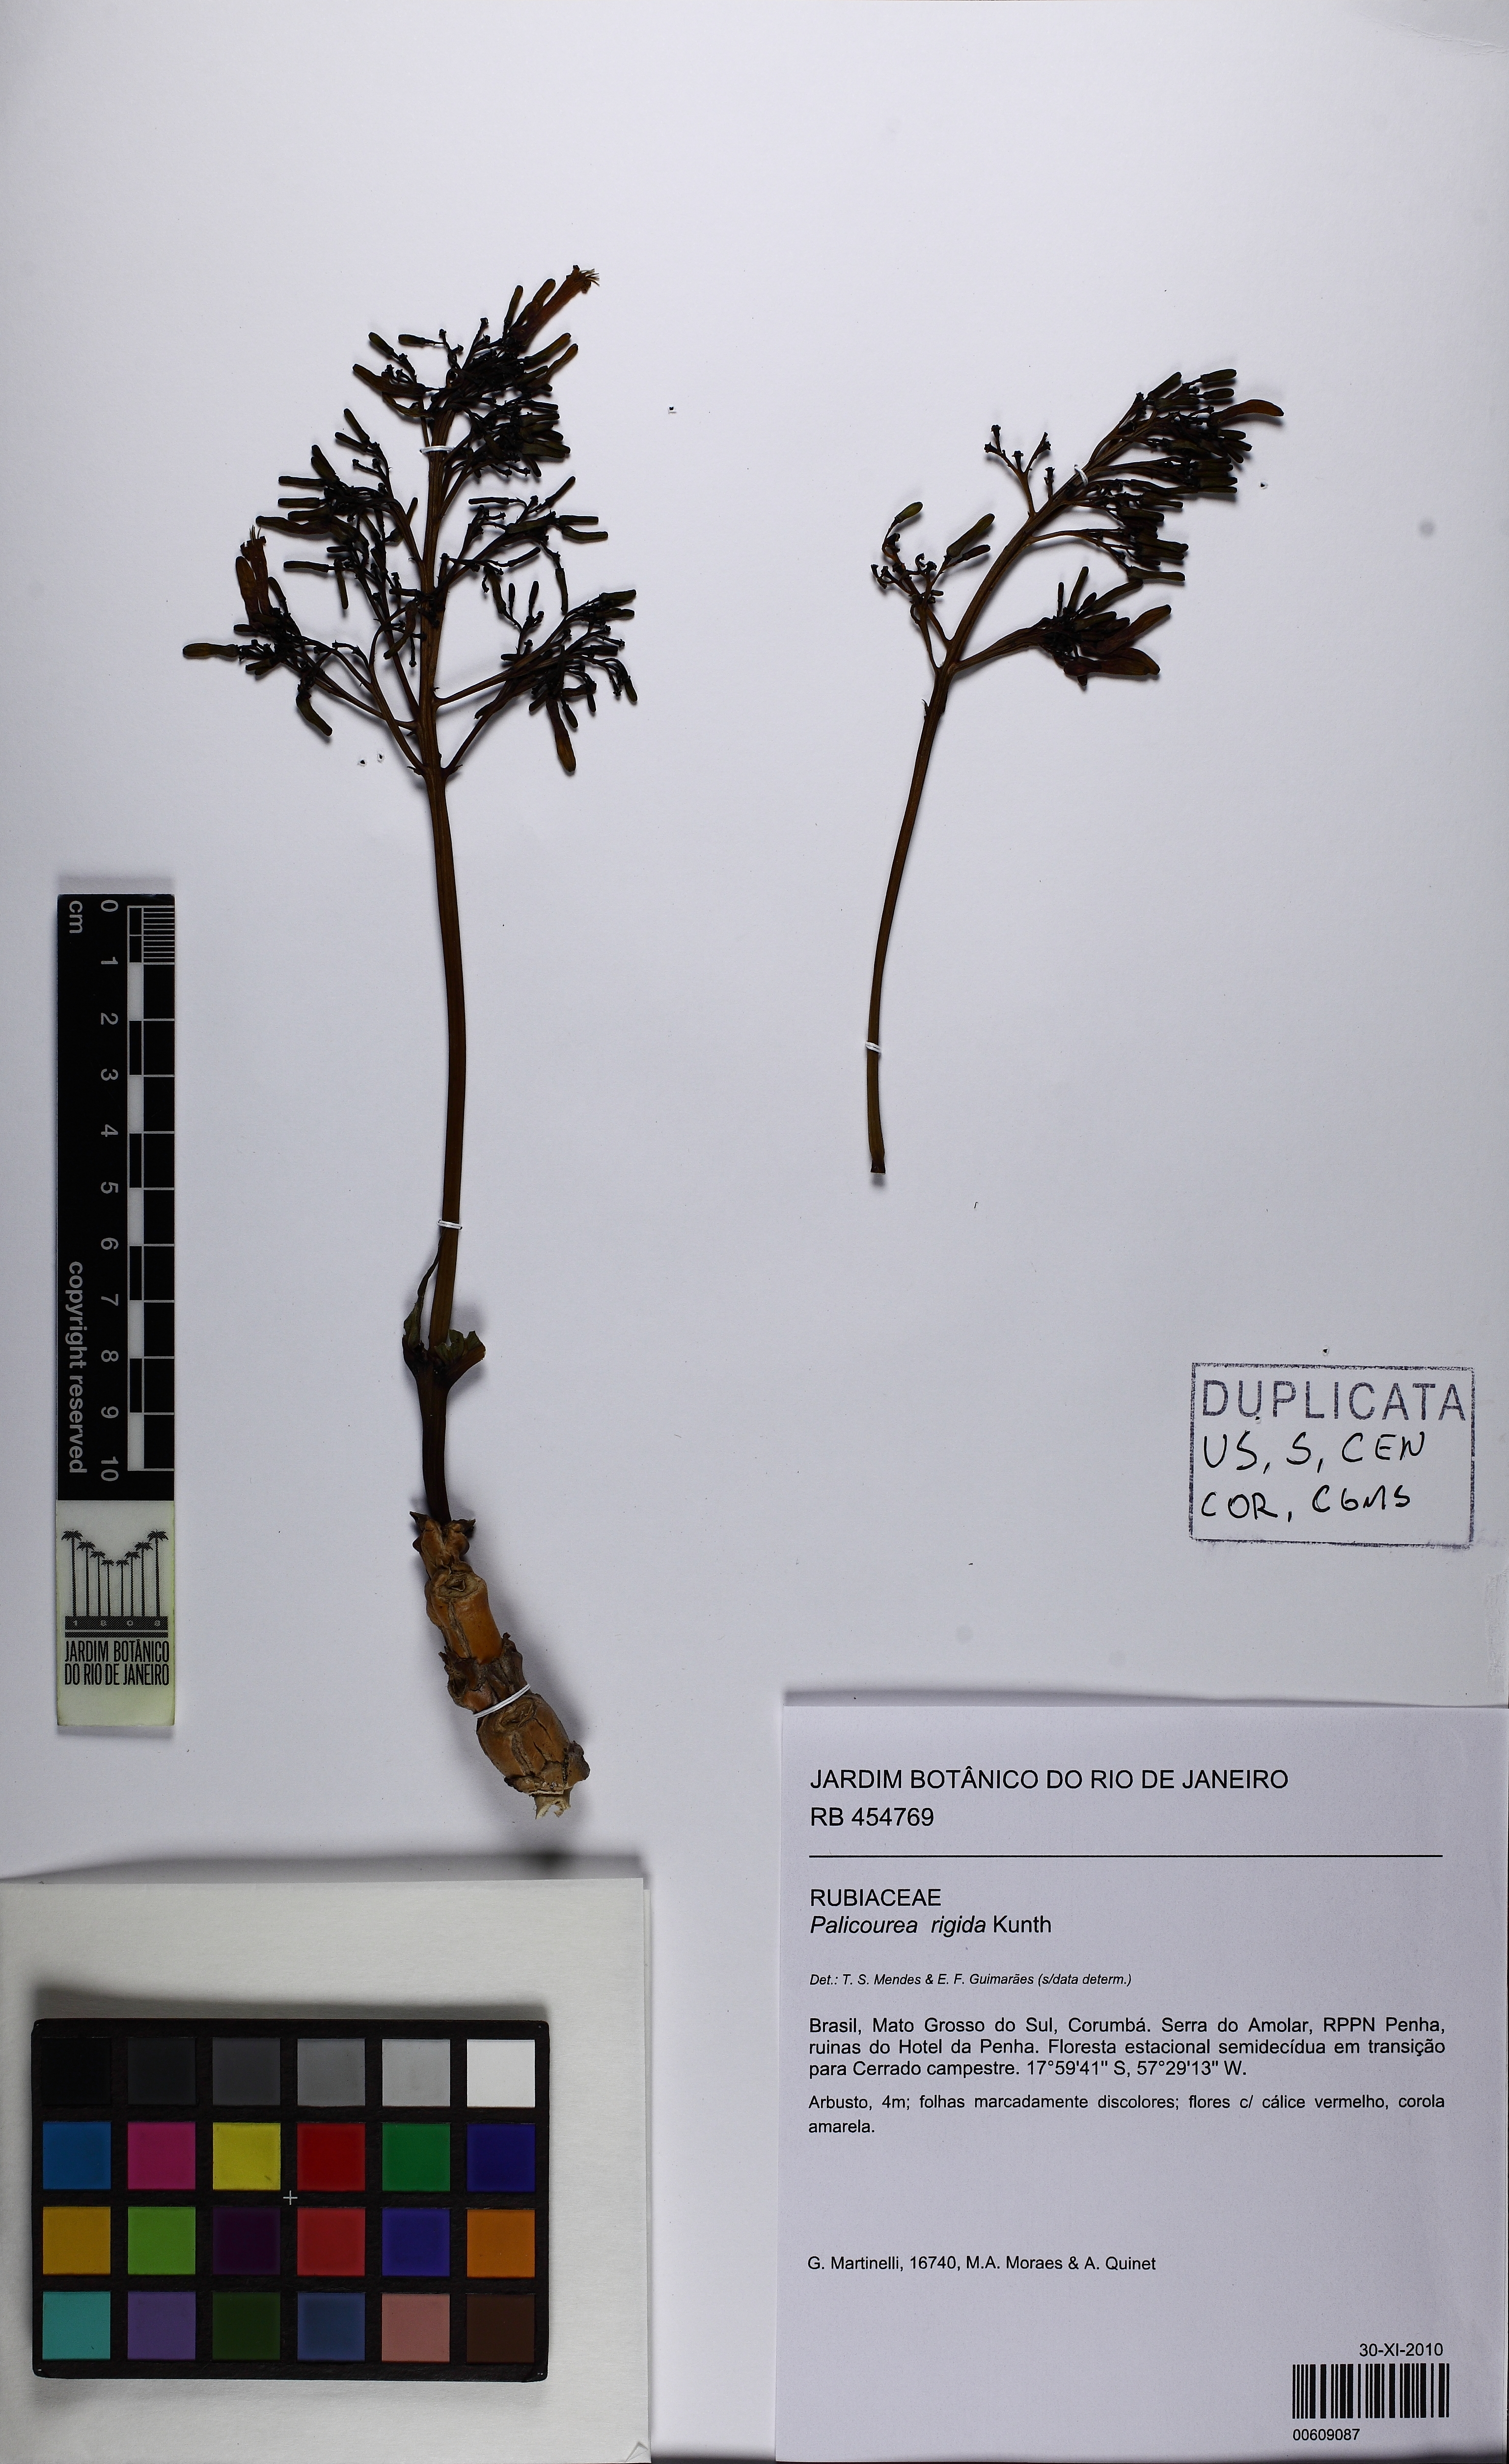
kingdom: Plantae
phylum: Tracheophyta
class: Magnoliopsida
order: Gentianales
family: Rubiaceae
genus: Palicourea
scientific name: Palicourea rigida
